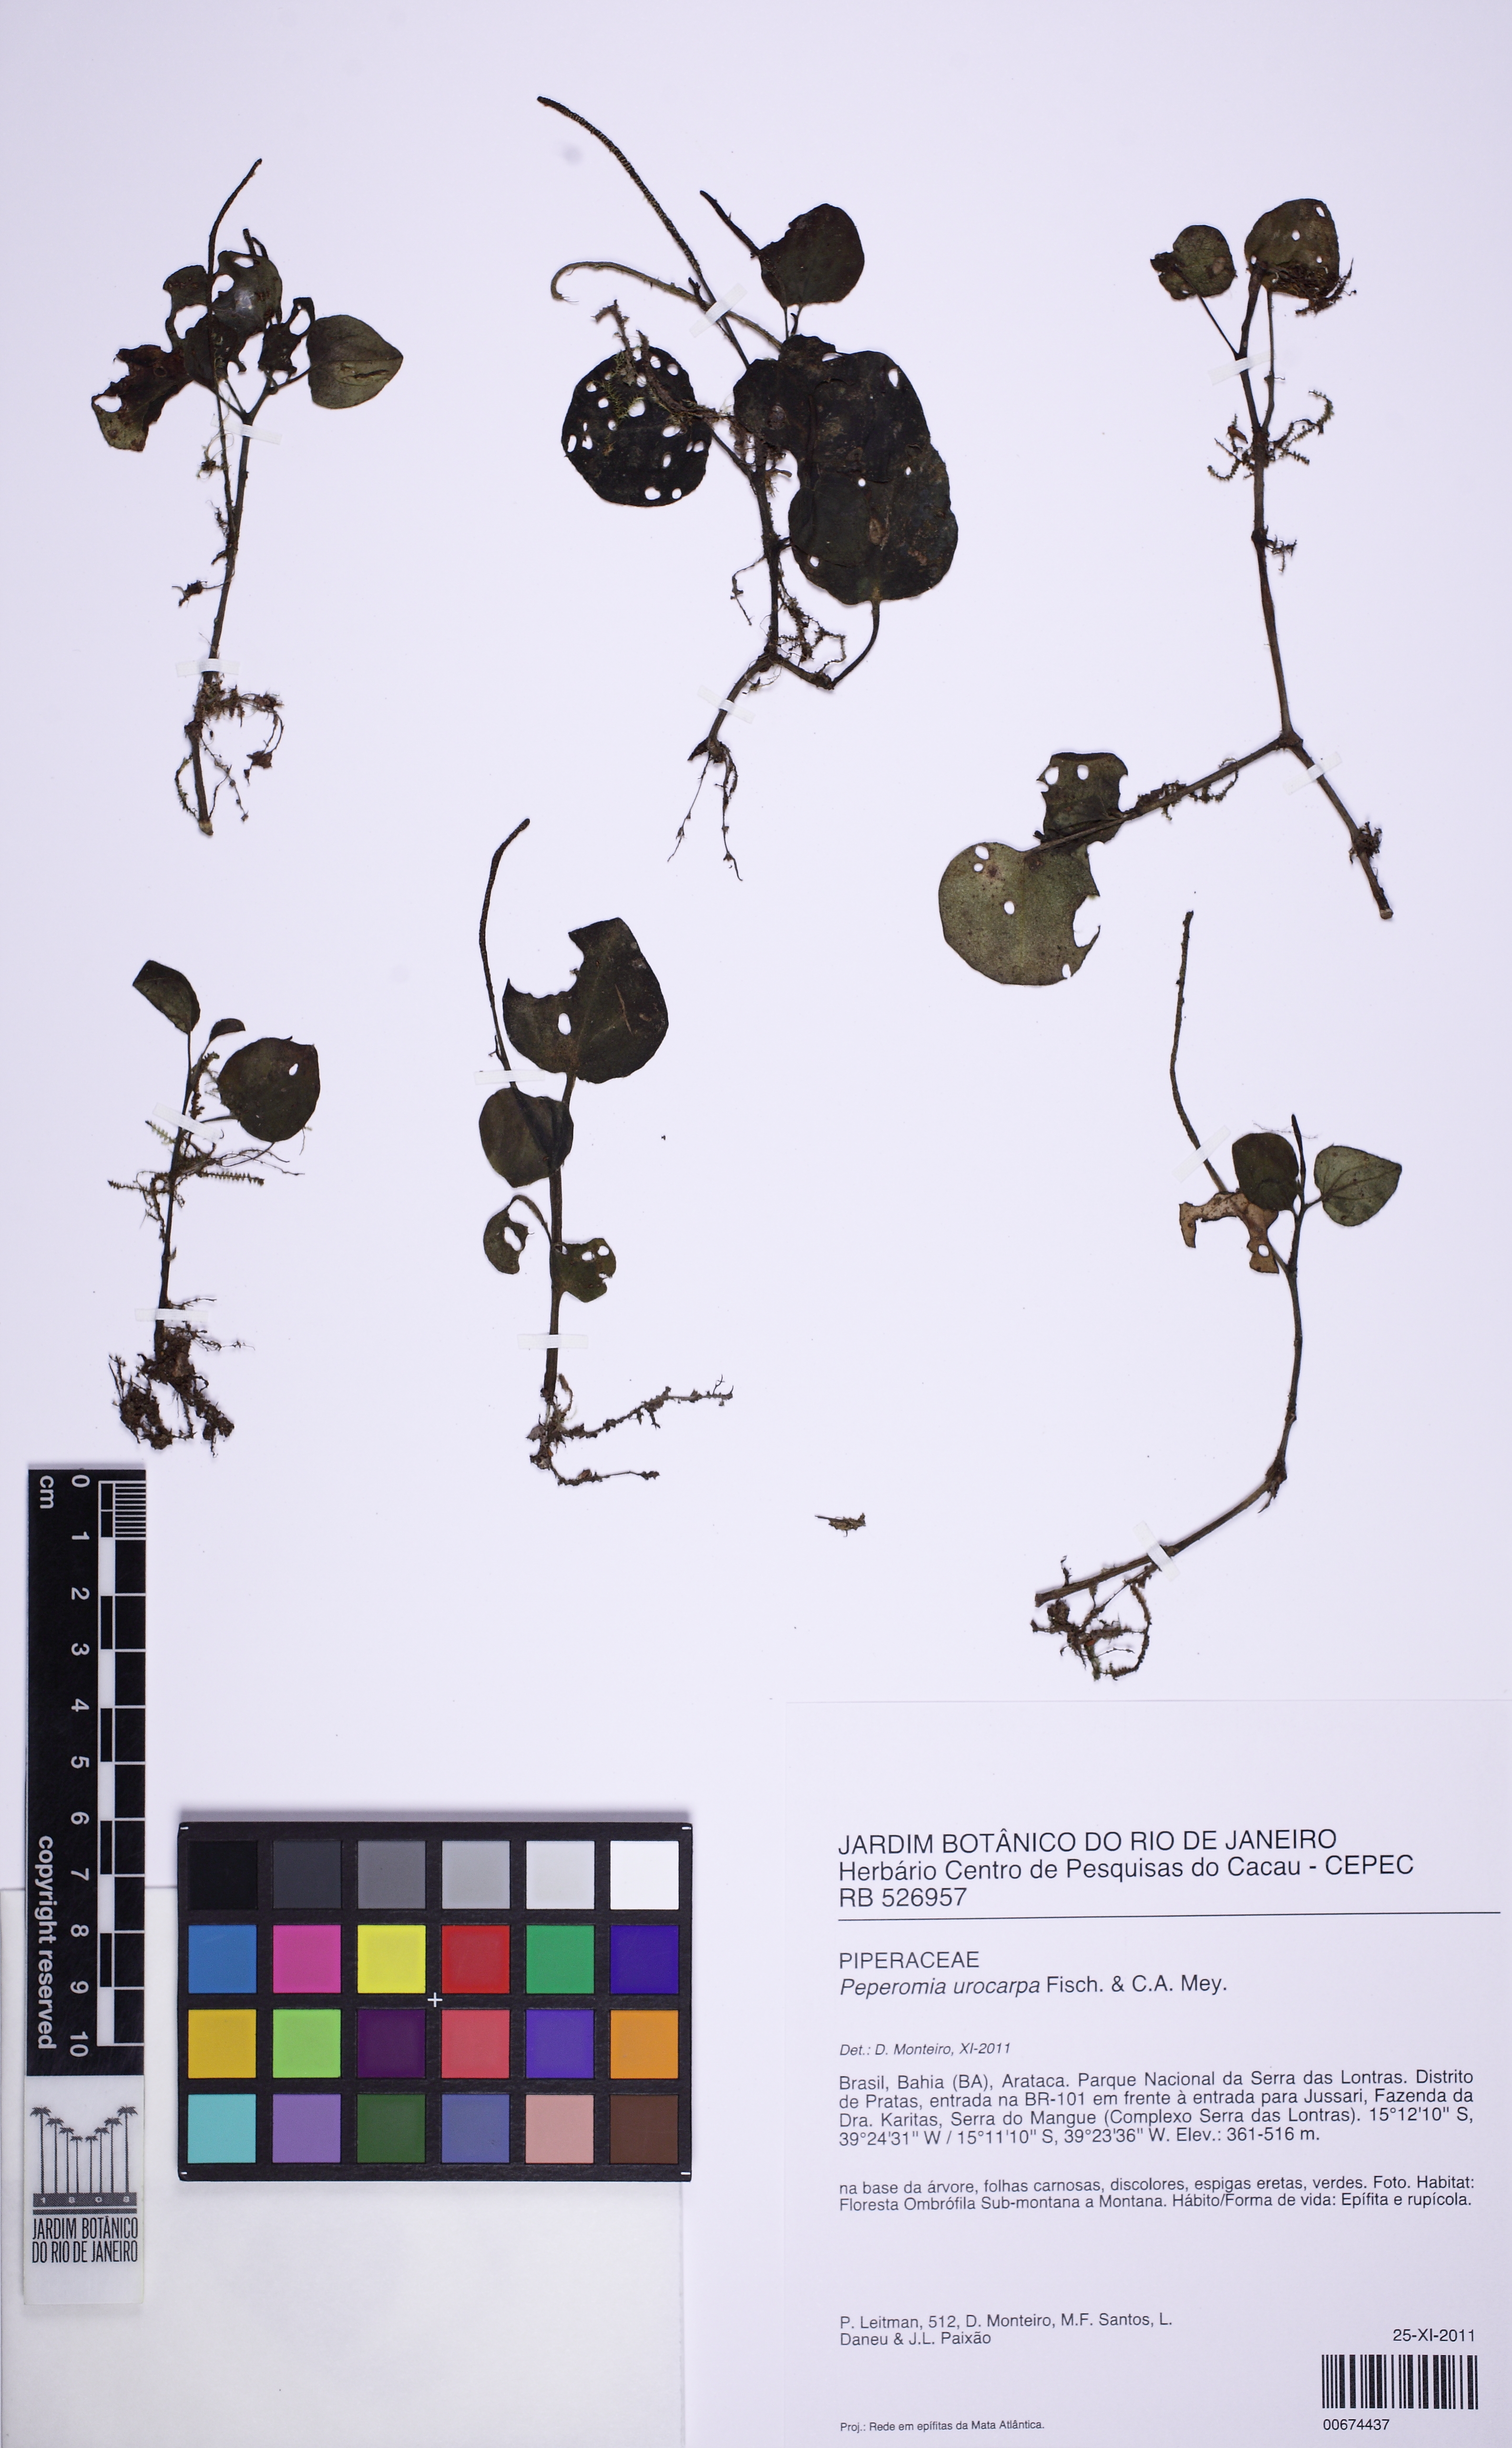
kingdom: Plantae
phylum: Tracheophyta
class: Magnoliopsida
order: Piperales
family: Piperaceae
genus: Peperomia
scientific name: Peperomia urocarpa
